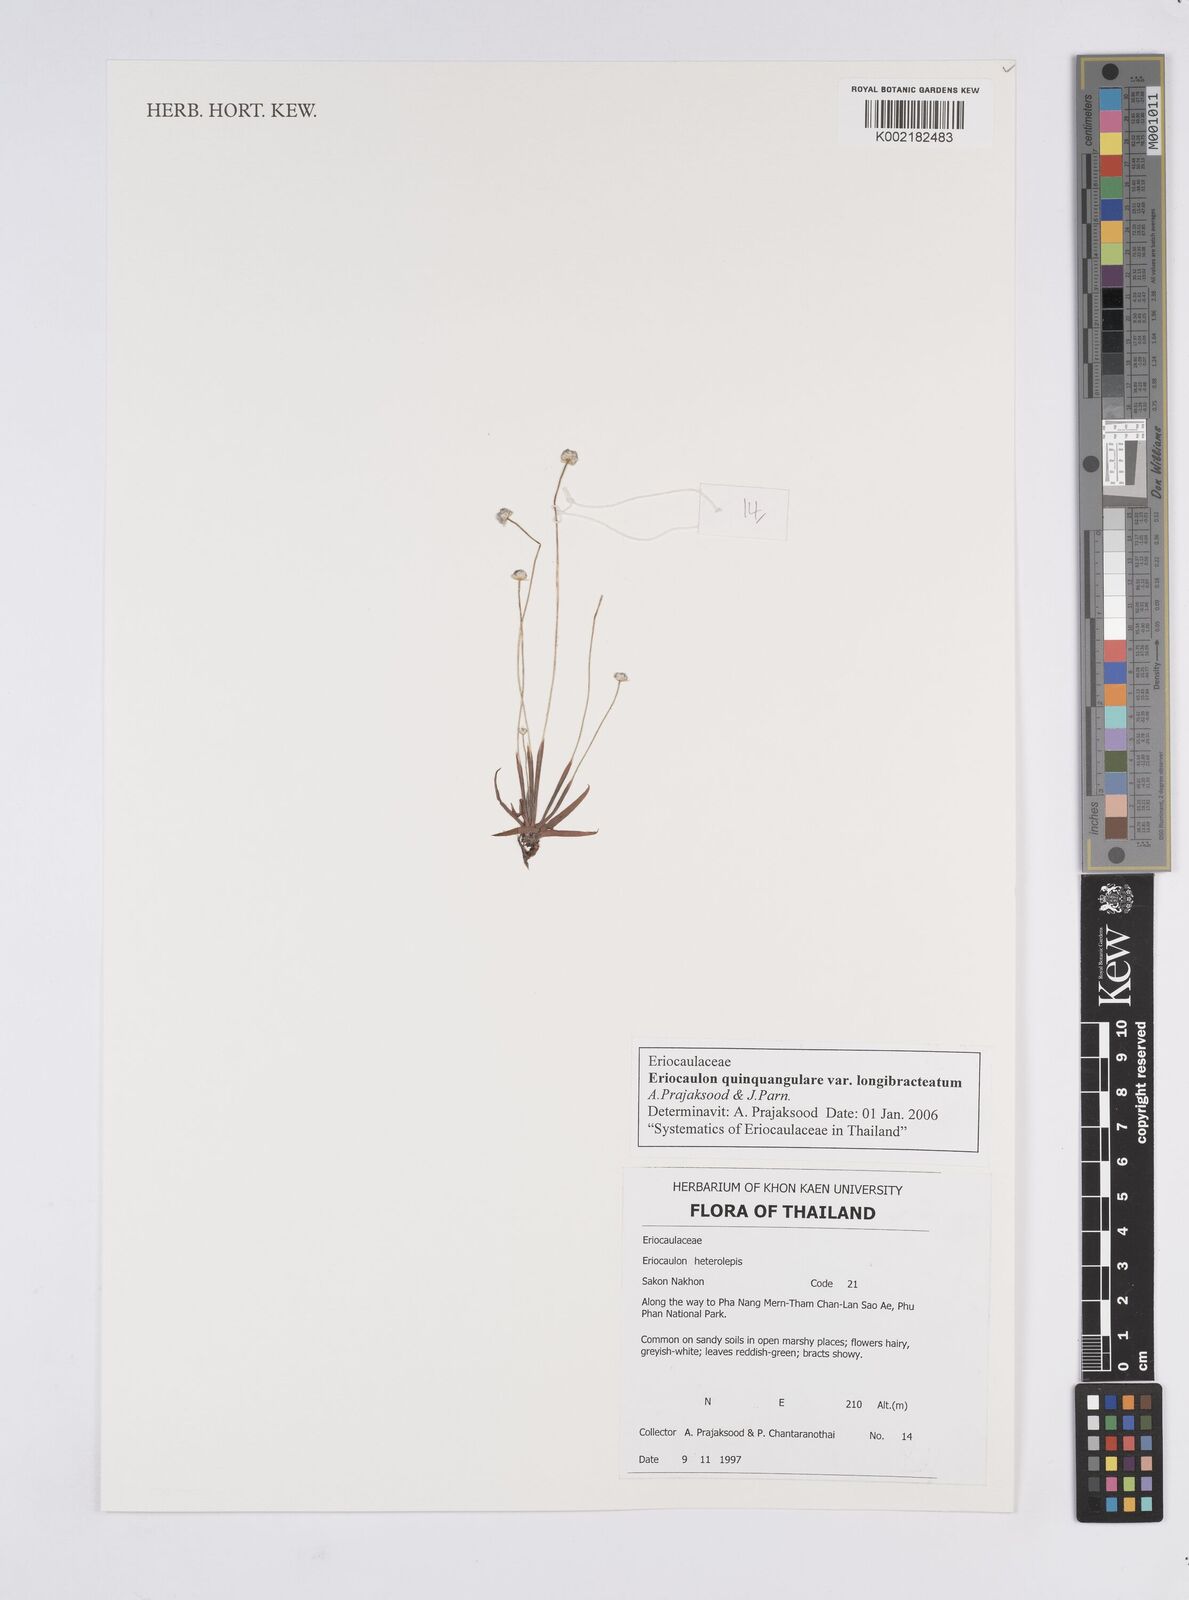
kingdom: Plantae
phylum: Tracheophyta
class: Liliopsida
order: Poales
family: Eriocaulaceae
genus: Eriocaulon
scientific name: Eriocaulon quinquangulare
